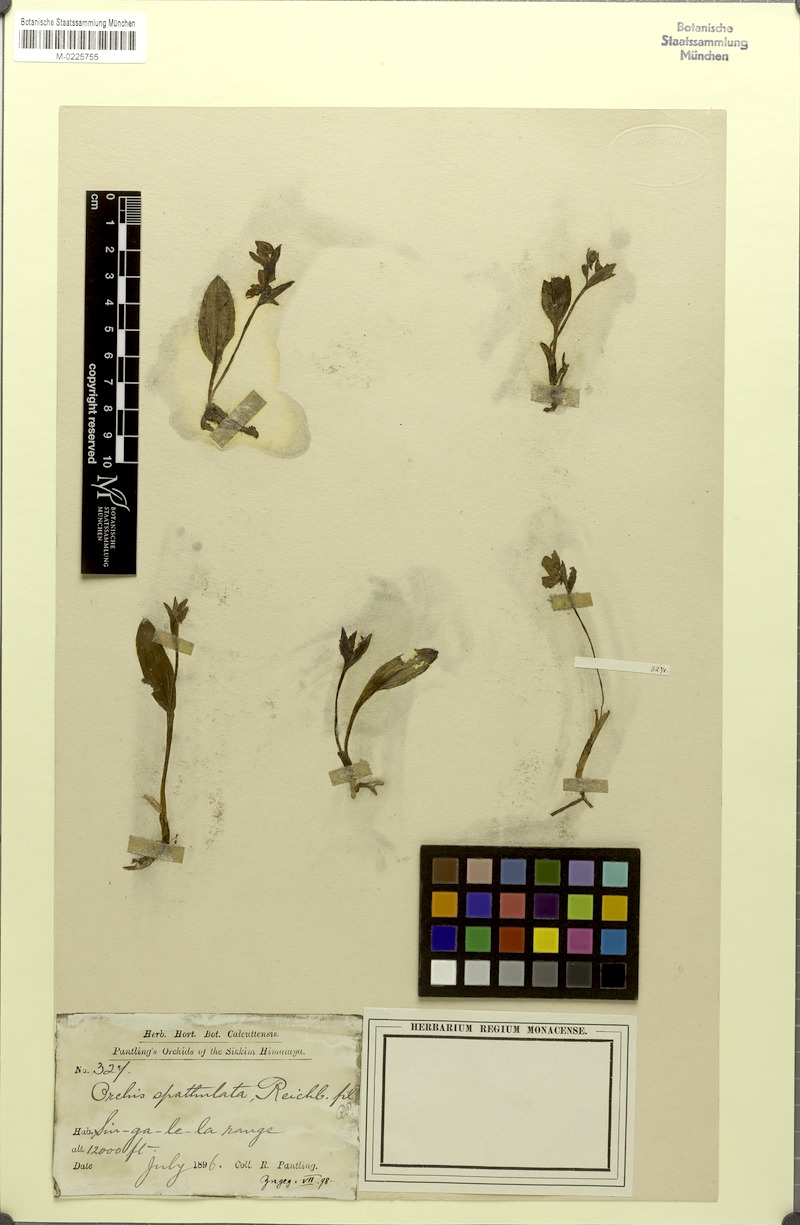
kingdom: Plantae
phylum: Tracheophyta
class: Liliopsida
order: Asparagales
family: Orchidaceae
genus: Galearis
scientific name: Galearis spathulata
